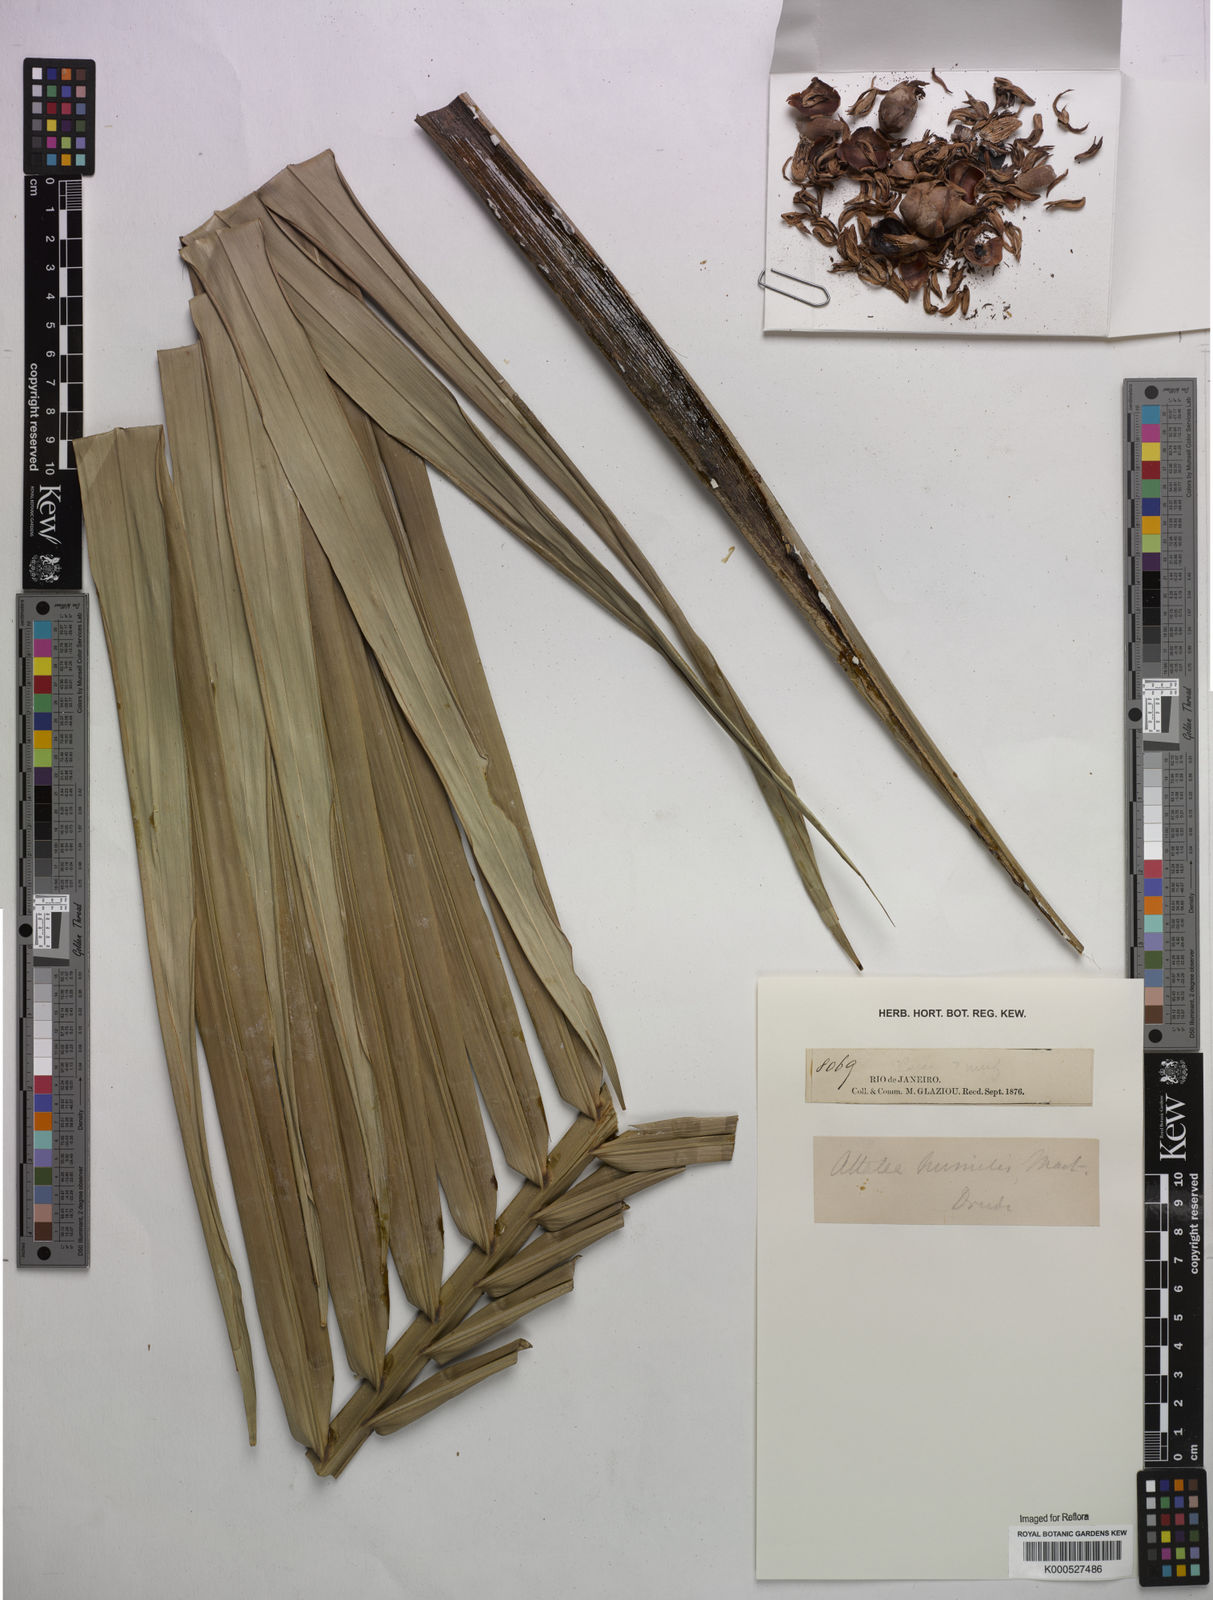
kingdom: Plantae
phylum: Tracheophyta
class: Liliopsida
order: Arecales
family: Arecaceae
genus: Attalea
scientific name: Attalea humilis
